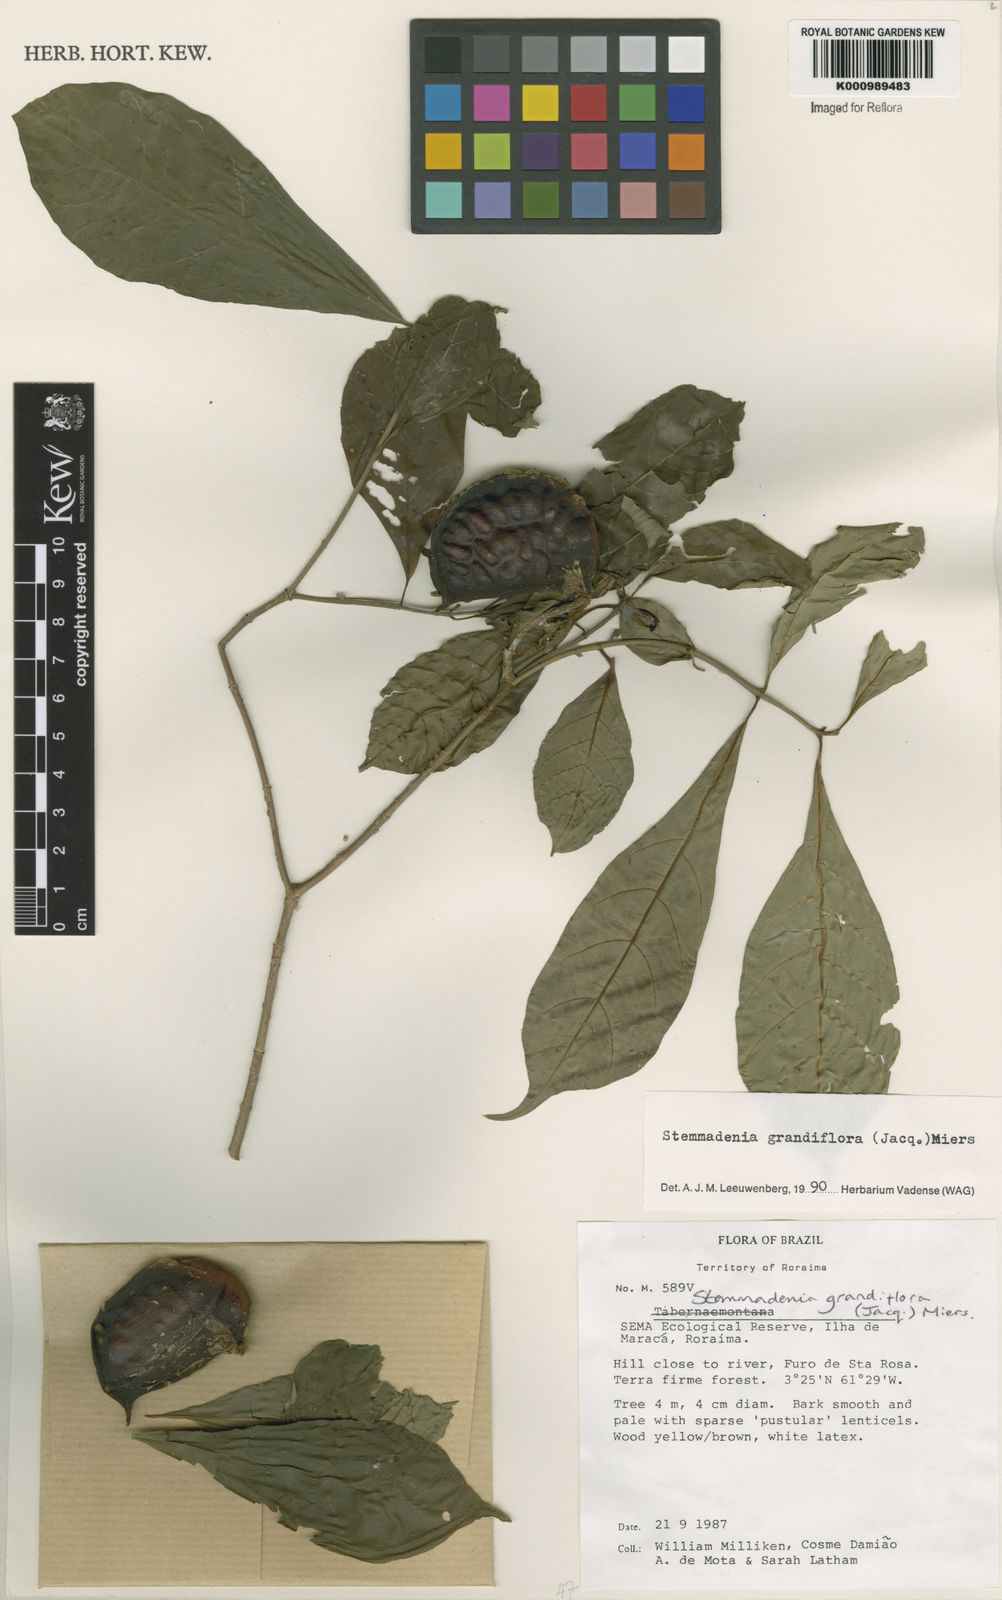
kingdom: Plantae
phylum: Tracheophyta
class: Magnoliopsida
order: Gentianales
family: Apocynaceae
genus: Tabernaemontana
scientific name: Tabernaemontana grandiflora
